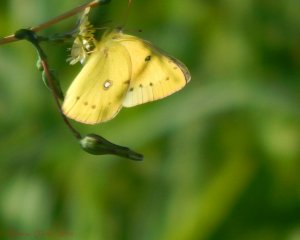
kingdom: Animalia
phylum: Arthropoda
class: Insecta
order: Lepidoptera
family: Pieridae
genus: Colias
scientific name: Colias eurytheme
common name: Orange Sulphur
